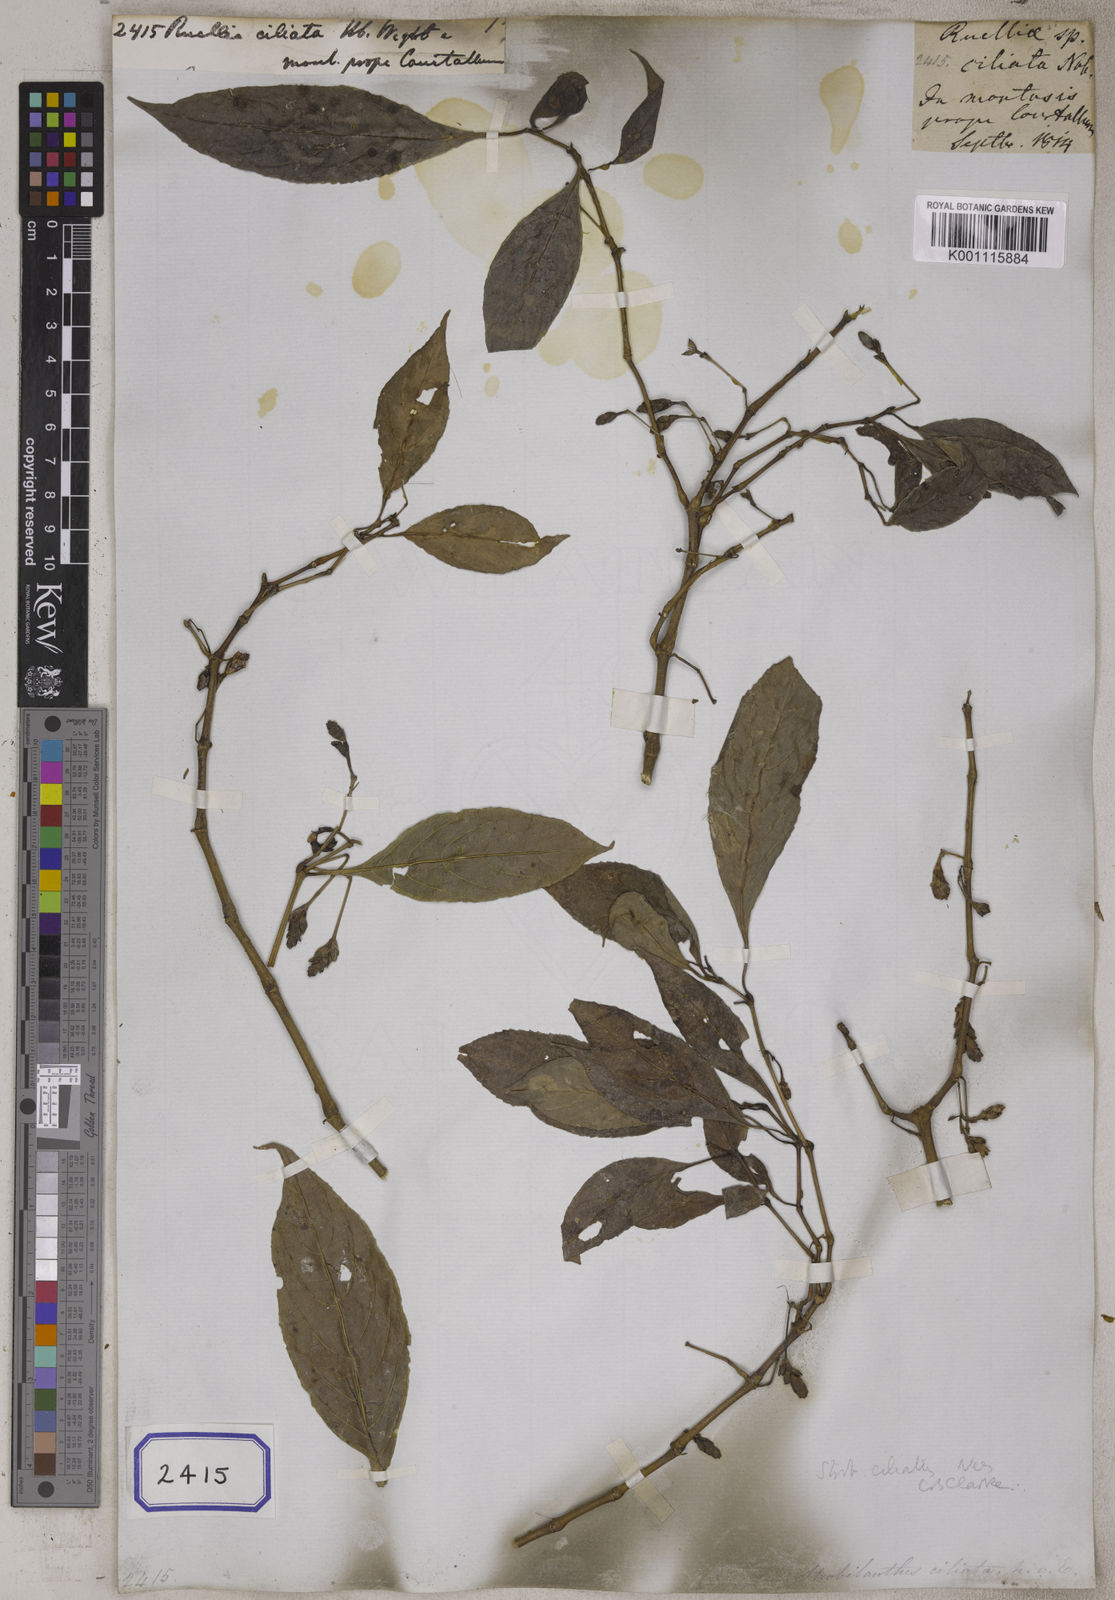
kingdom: Plantae
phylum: Tracheophyta
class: Magnoliopsida
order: Lamiales
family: Acanthaceae
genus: Ruellia
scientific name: Ruellia
